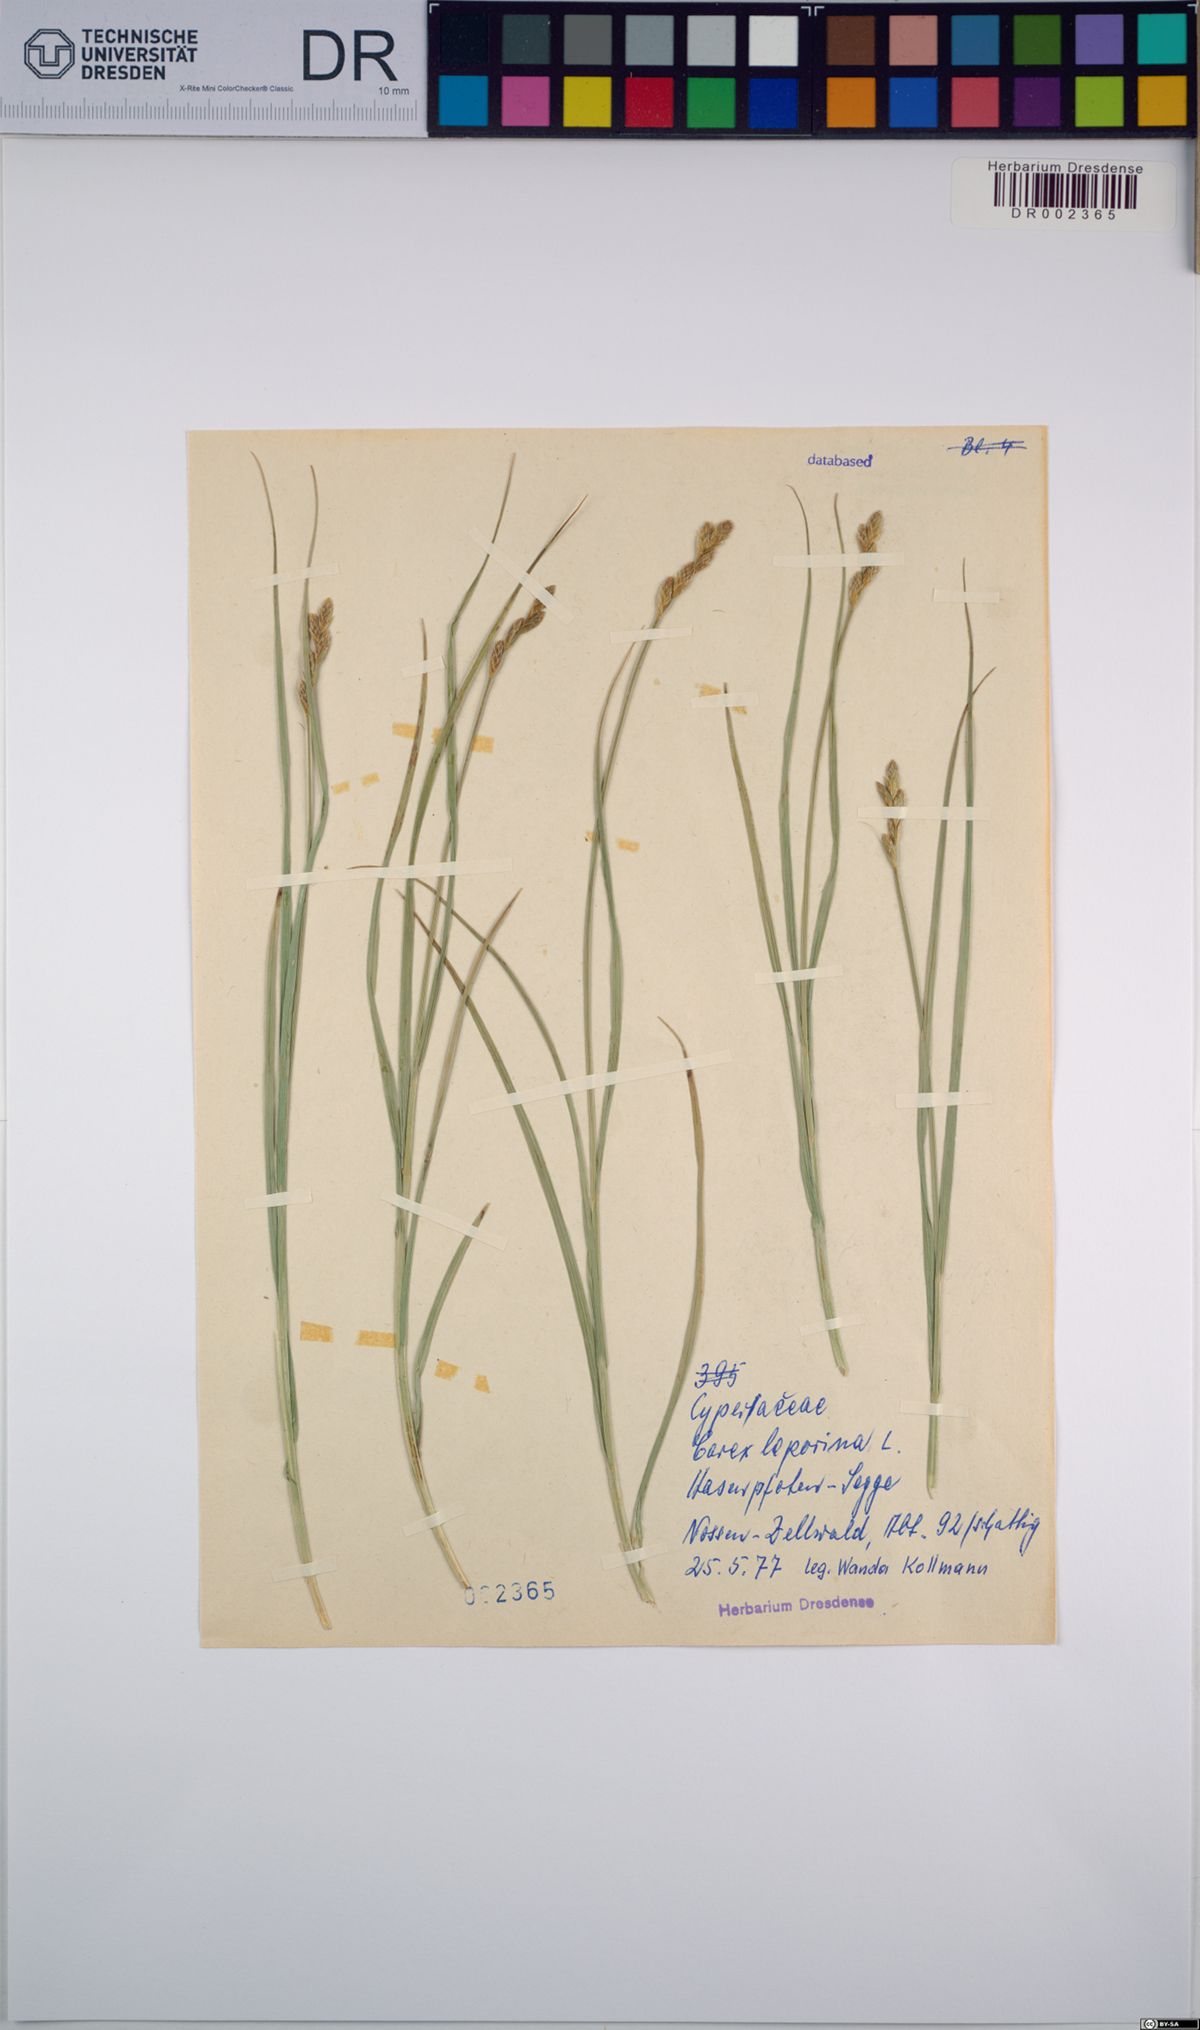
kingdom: Plantae
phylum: Tracheophyta
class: Liliopsida
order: Poales
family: Cyperaceae
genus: Carex
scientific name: Carex leporina
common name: Oval sedge
